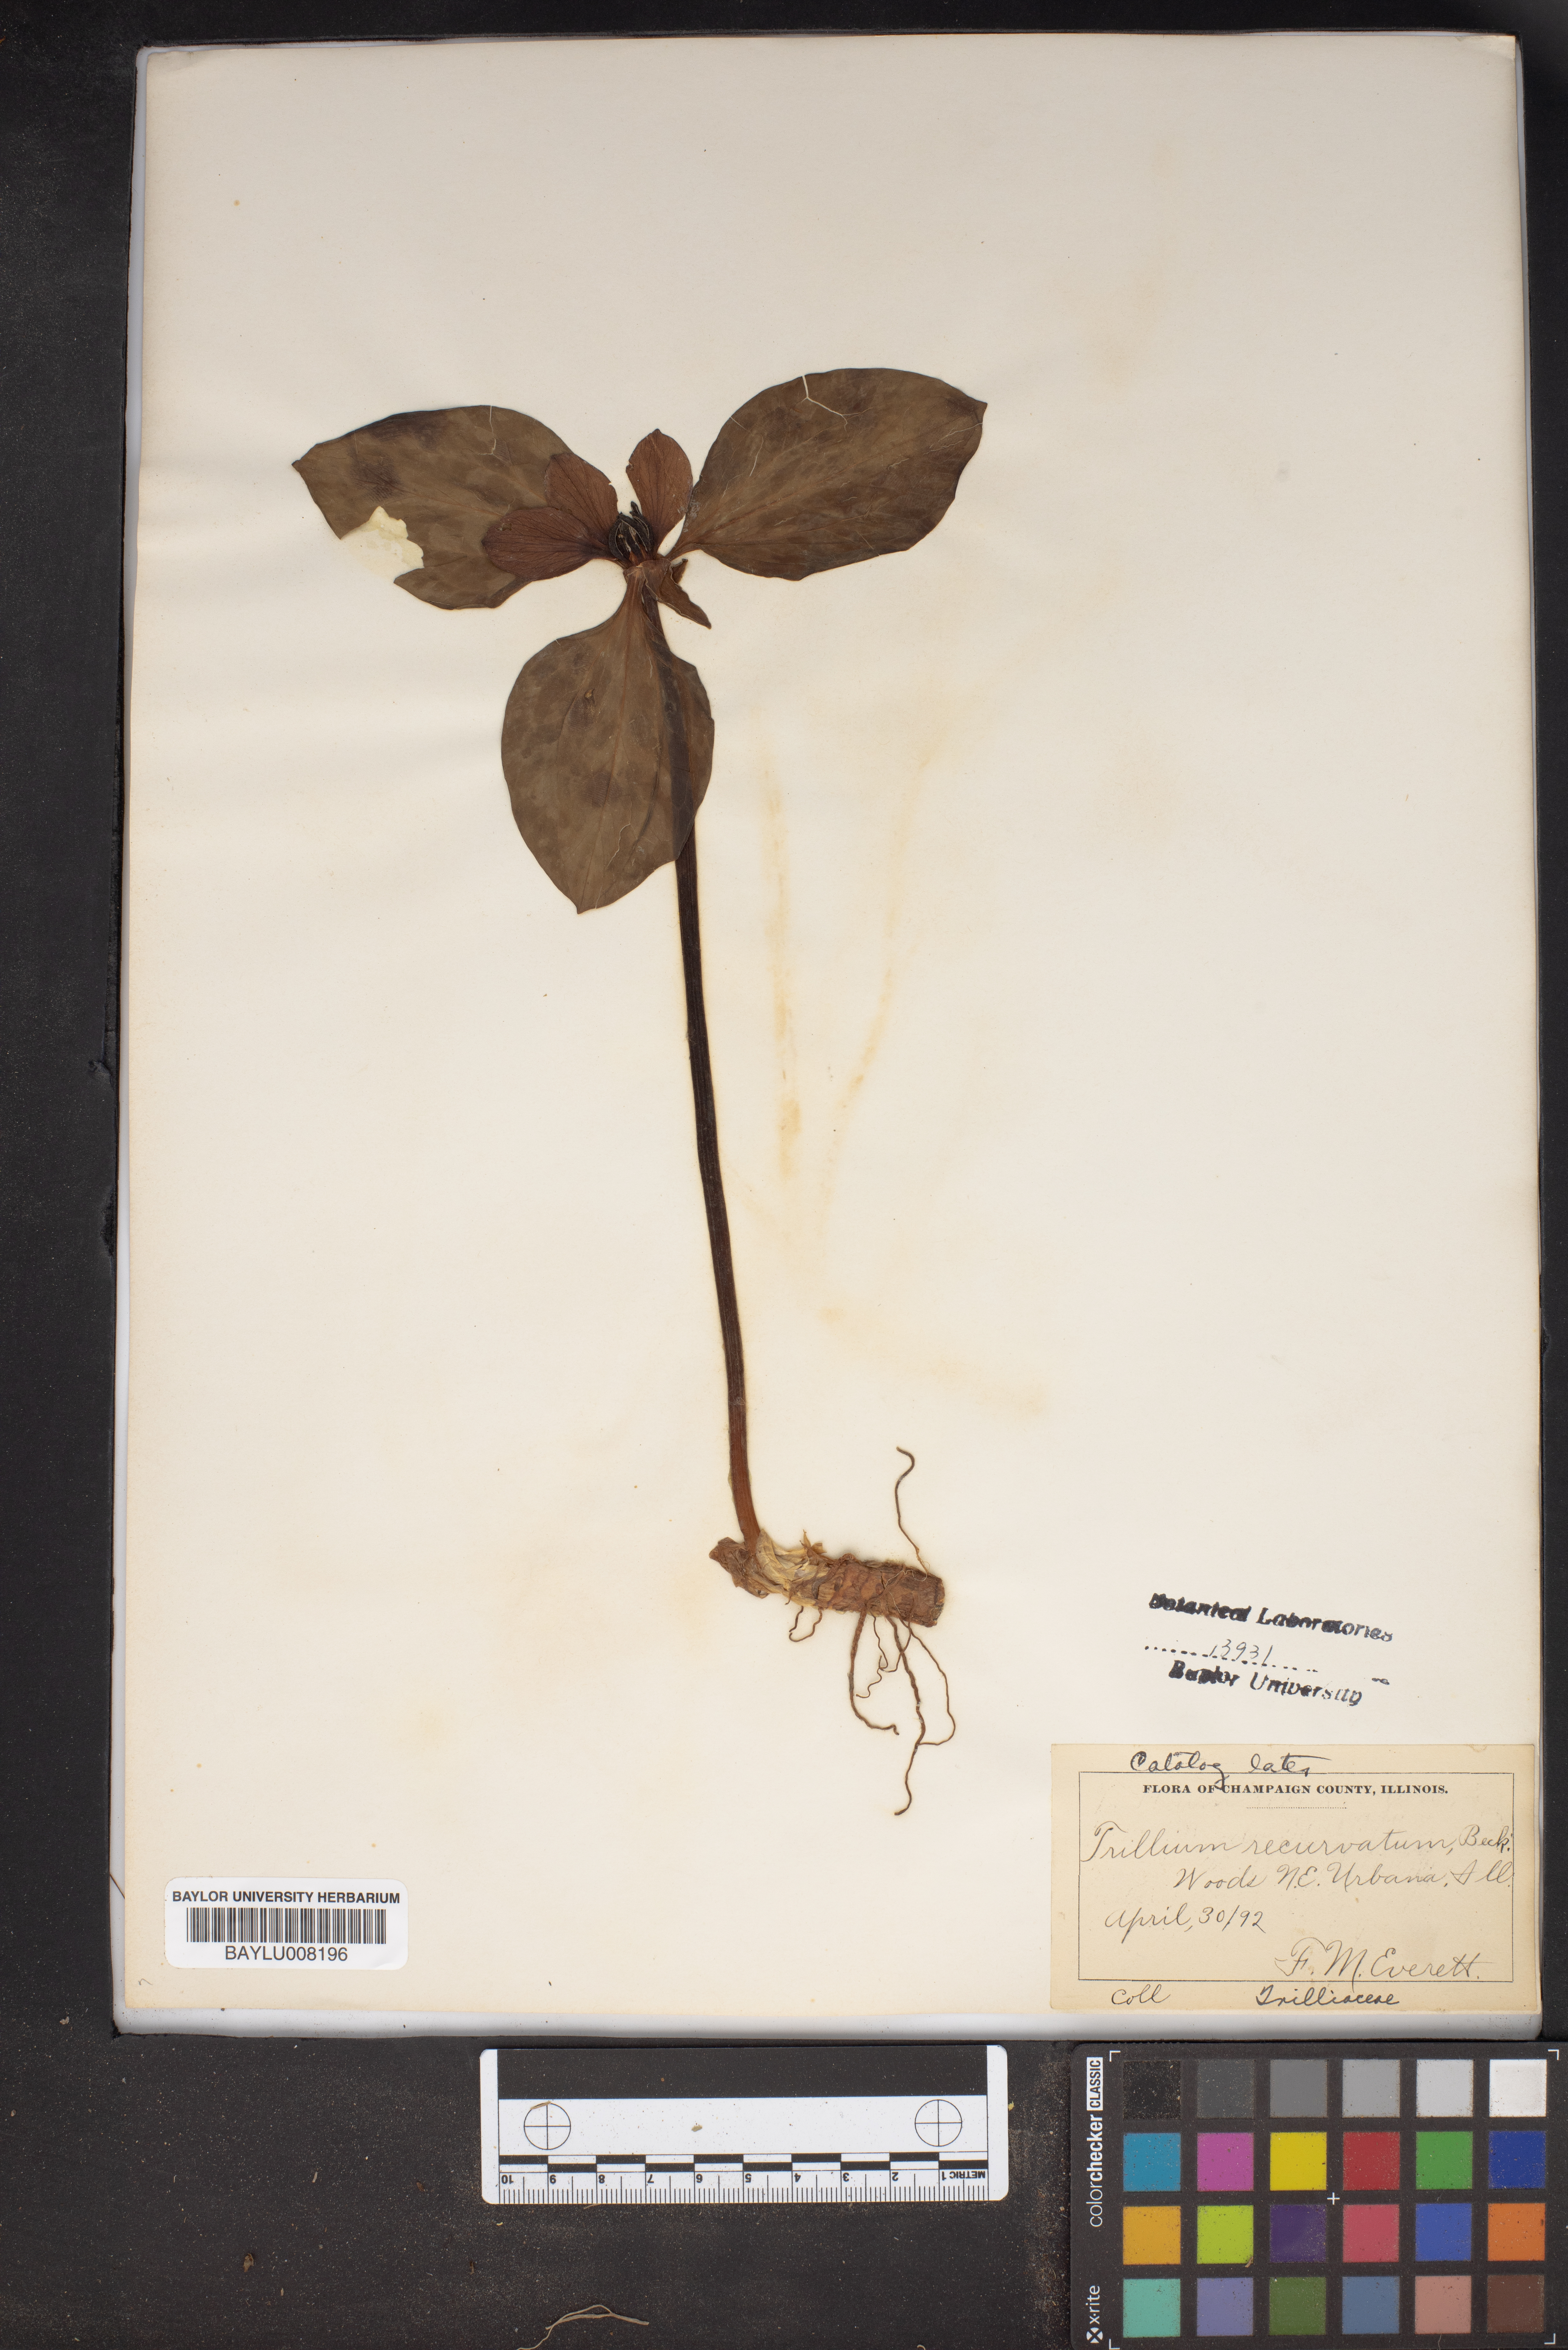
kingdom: Plantae
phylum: Tracheophyta
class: Liliopsida
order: Liliales
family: Melanthiaceae
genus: Trillium
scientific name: Trillium recurvatum
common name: Bloody butcher
